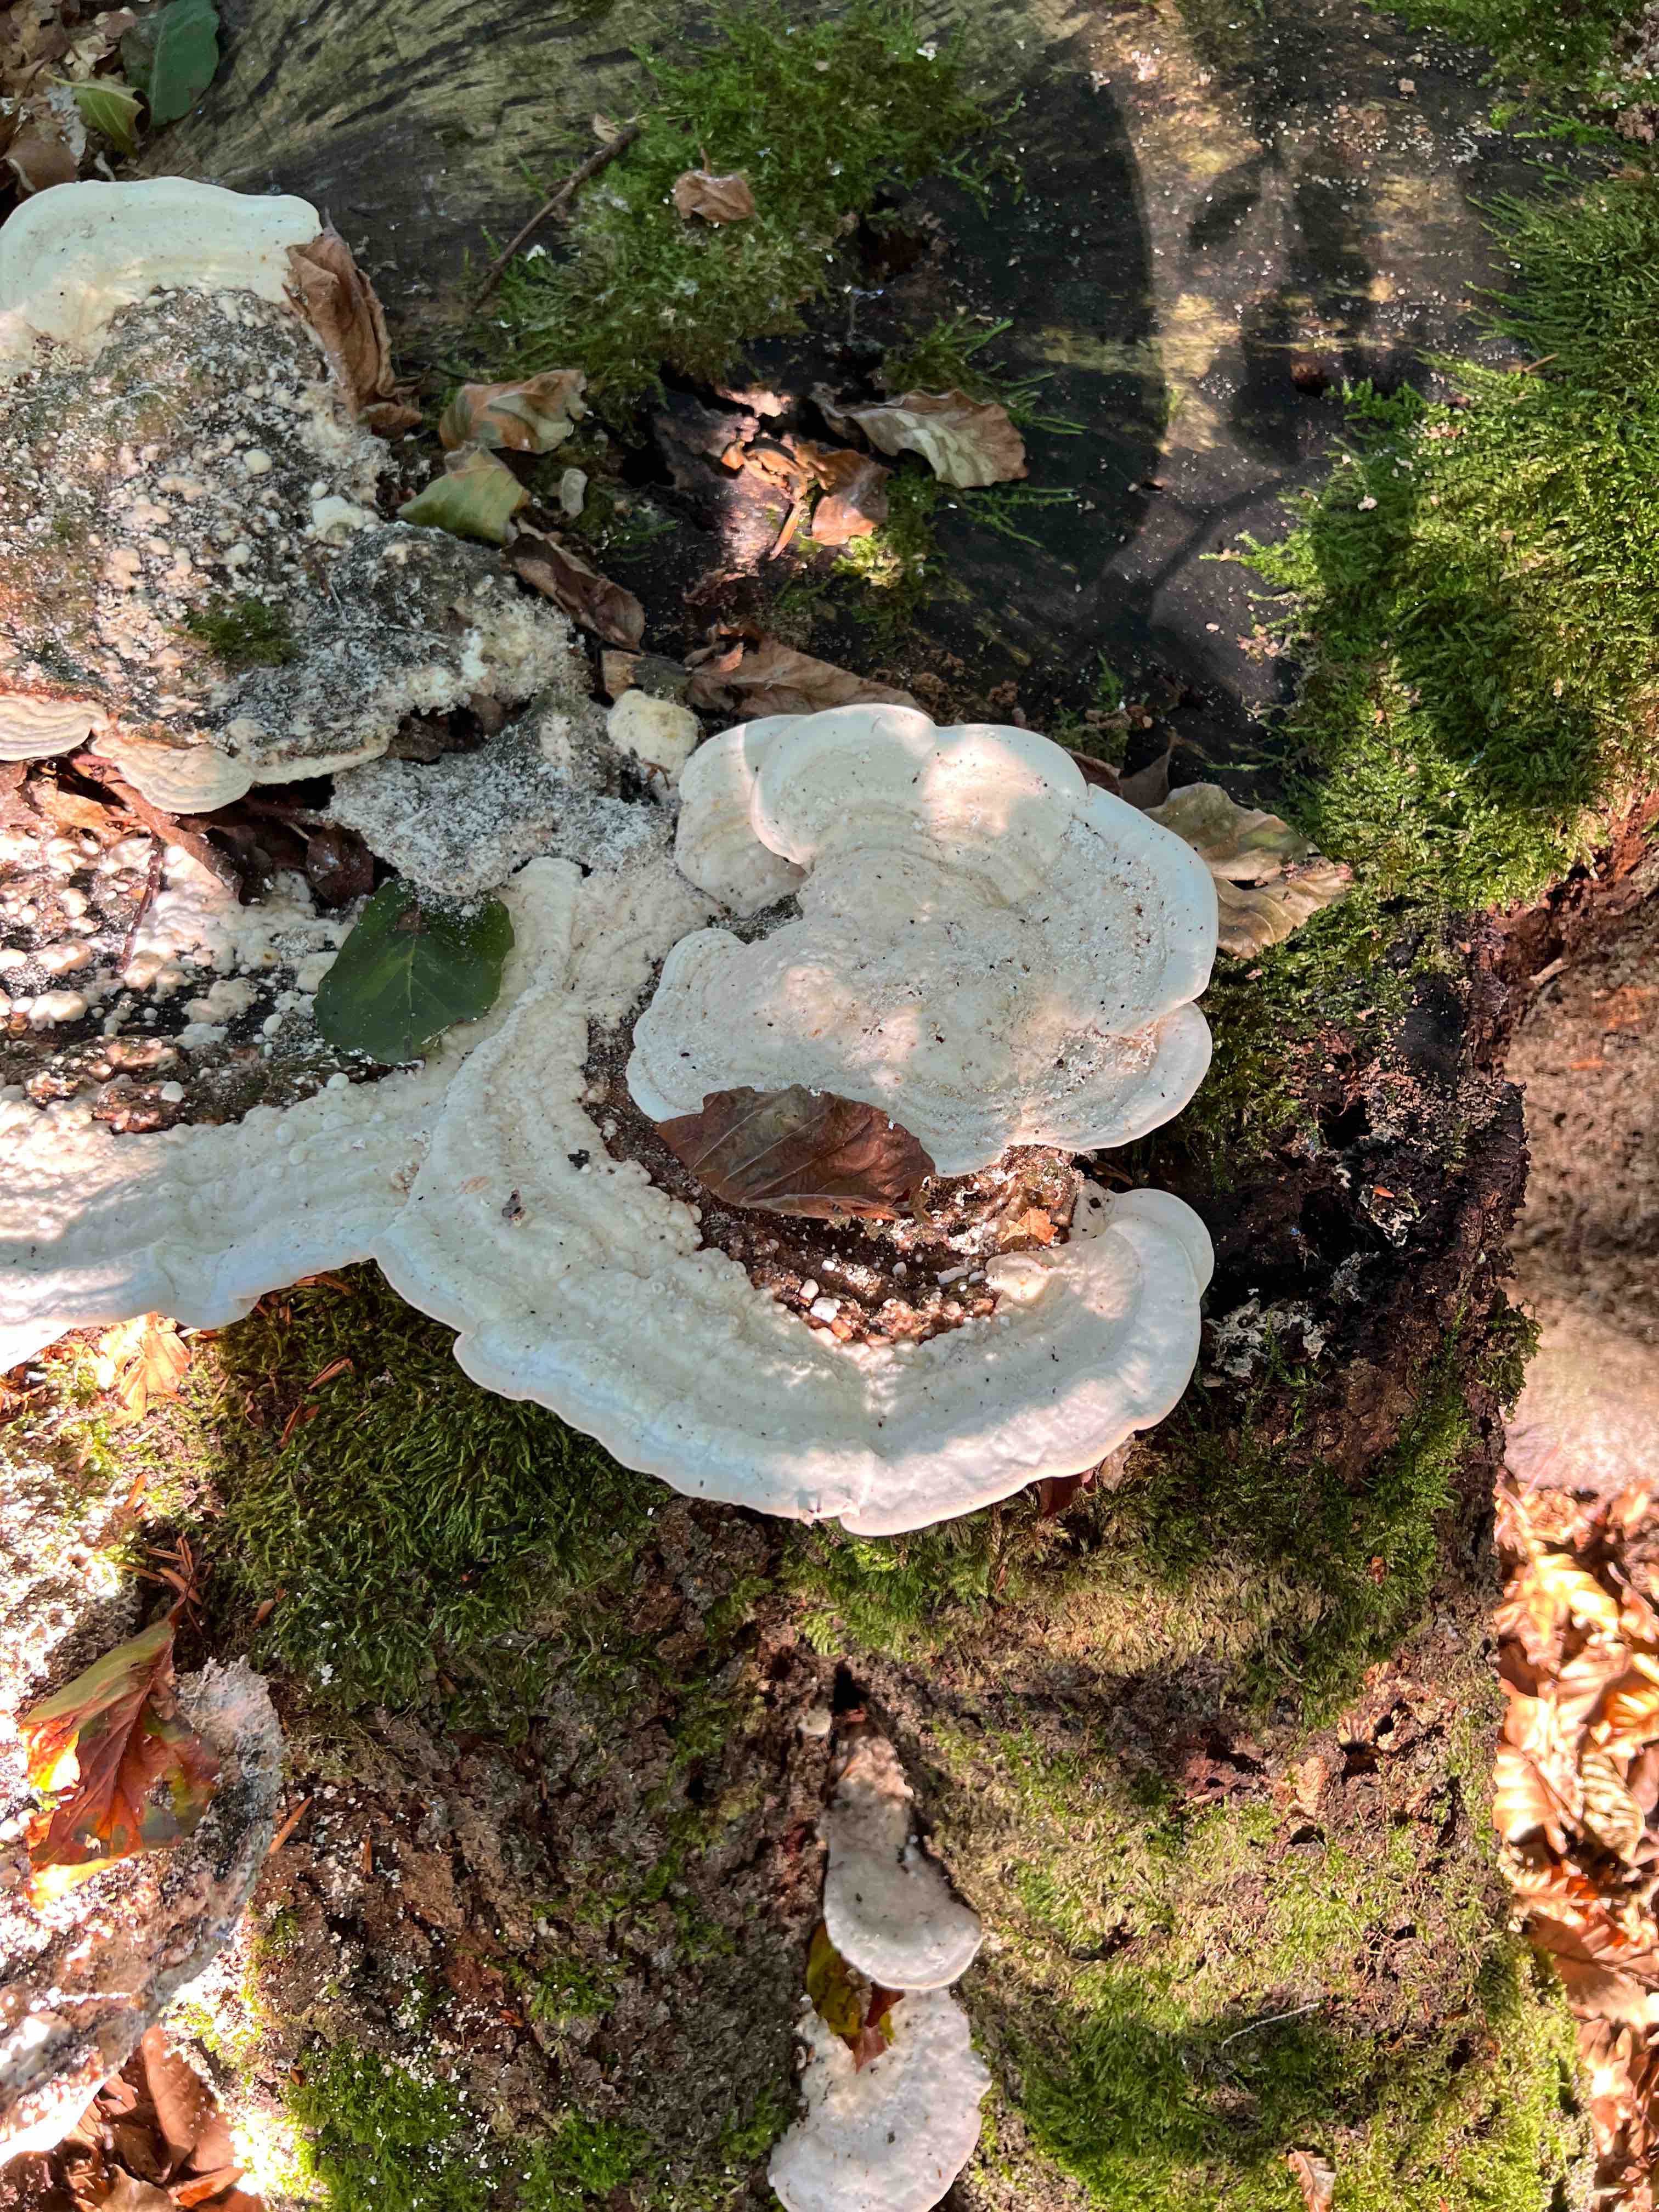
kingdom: Fungi
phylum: Basidiomycota
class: Agaricomycetes
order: Polyporales
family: Polyporaceae
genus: Trametes
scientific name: Trametes gibbosa
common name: puklet læderporesvamp
